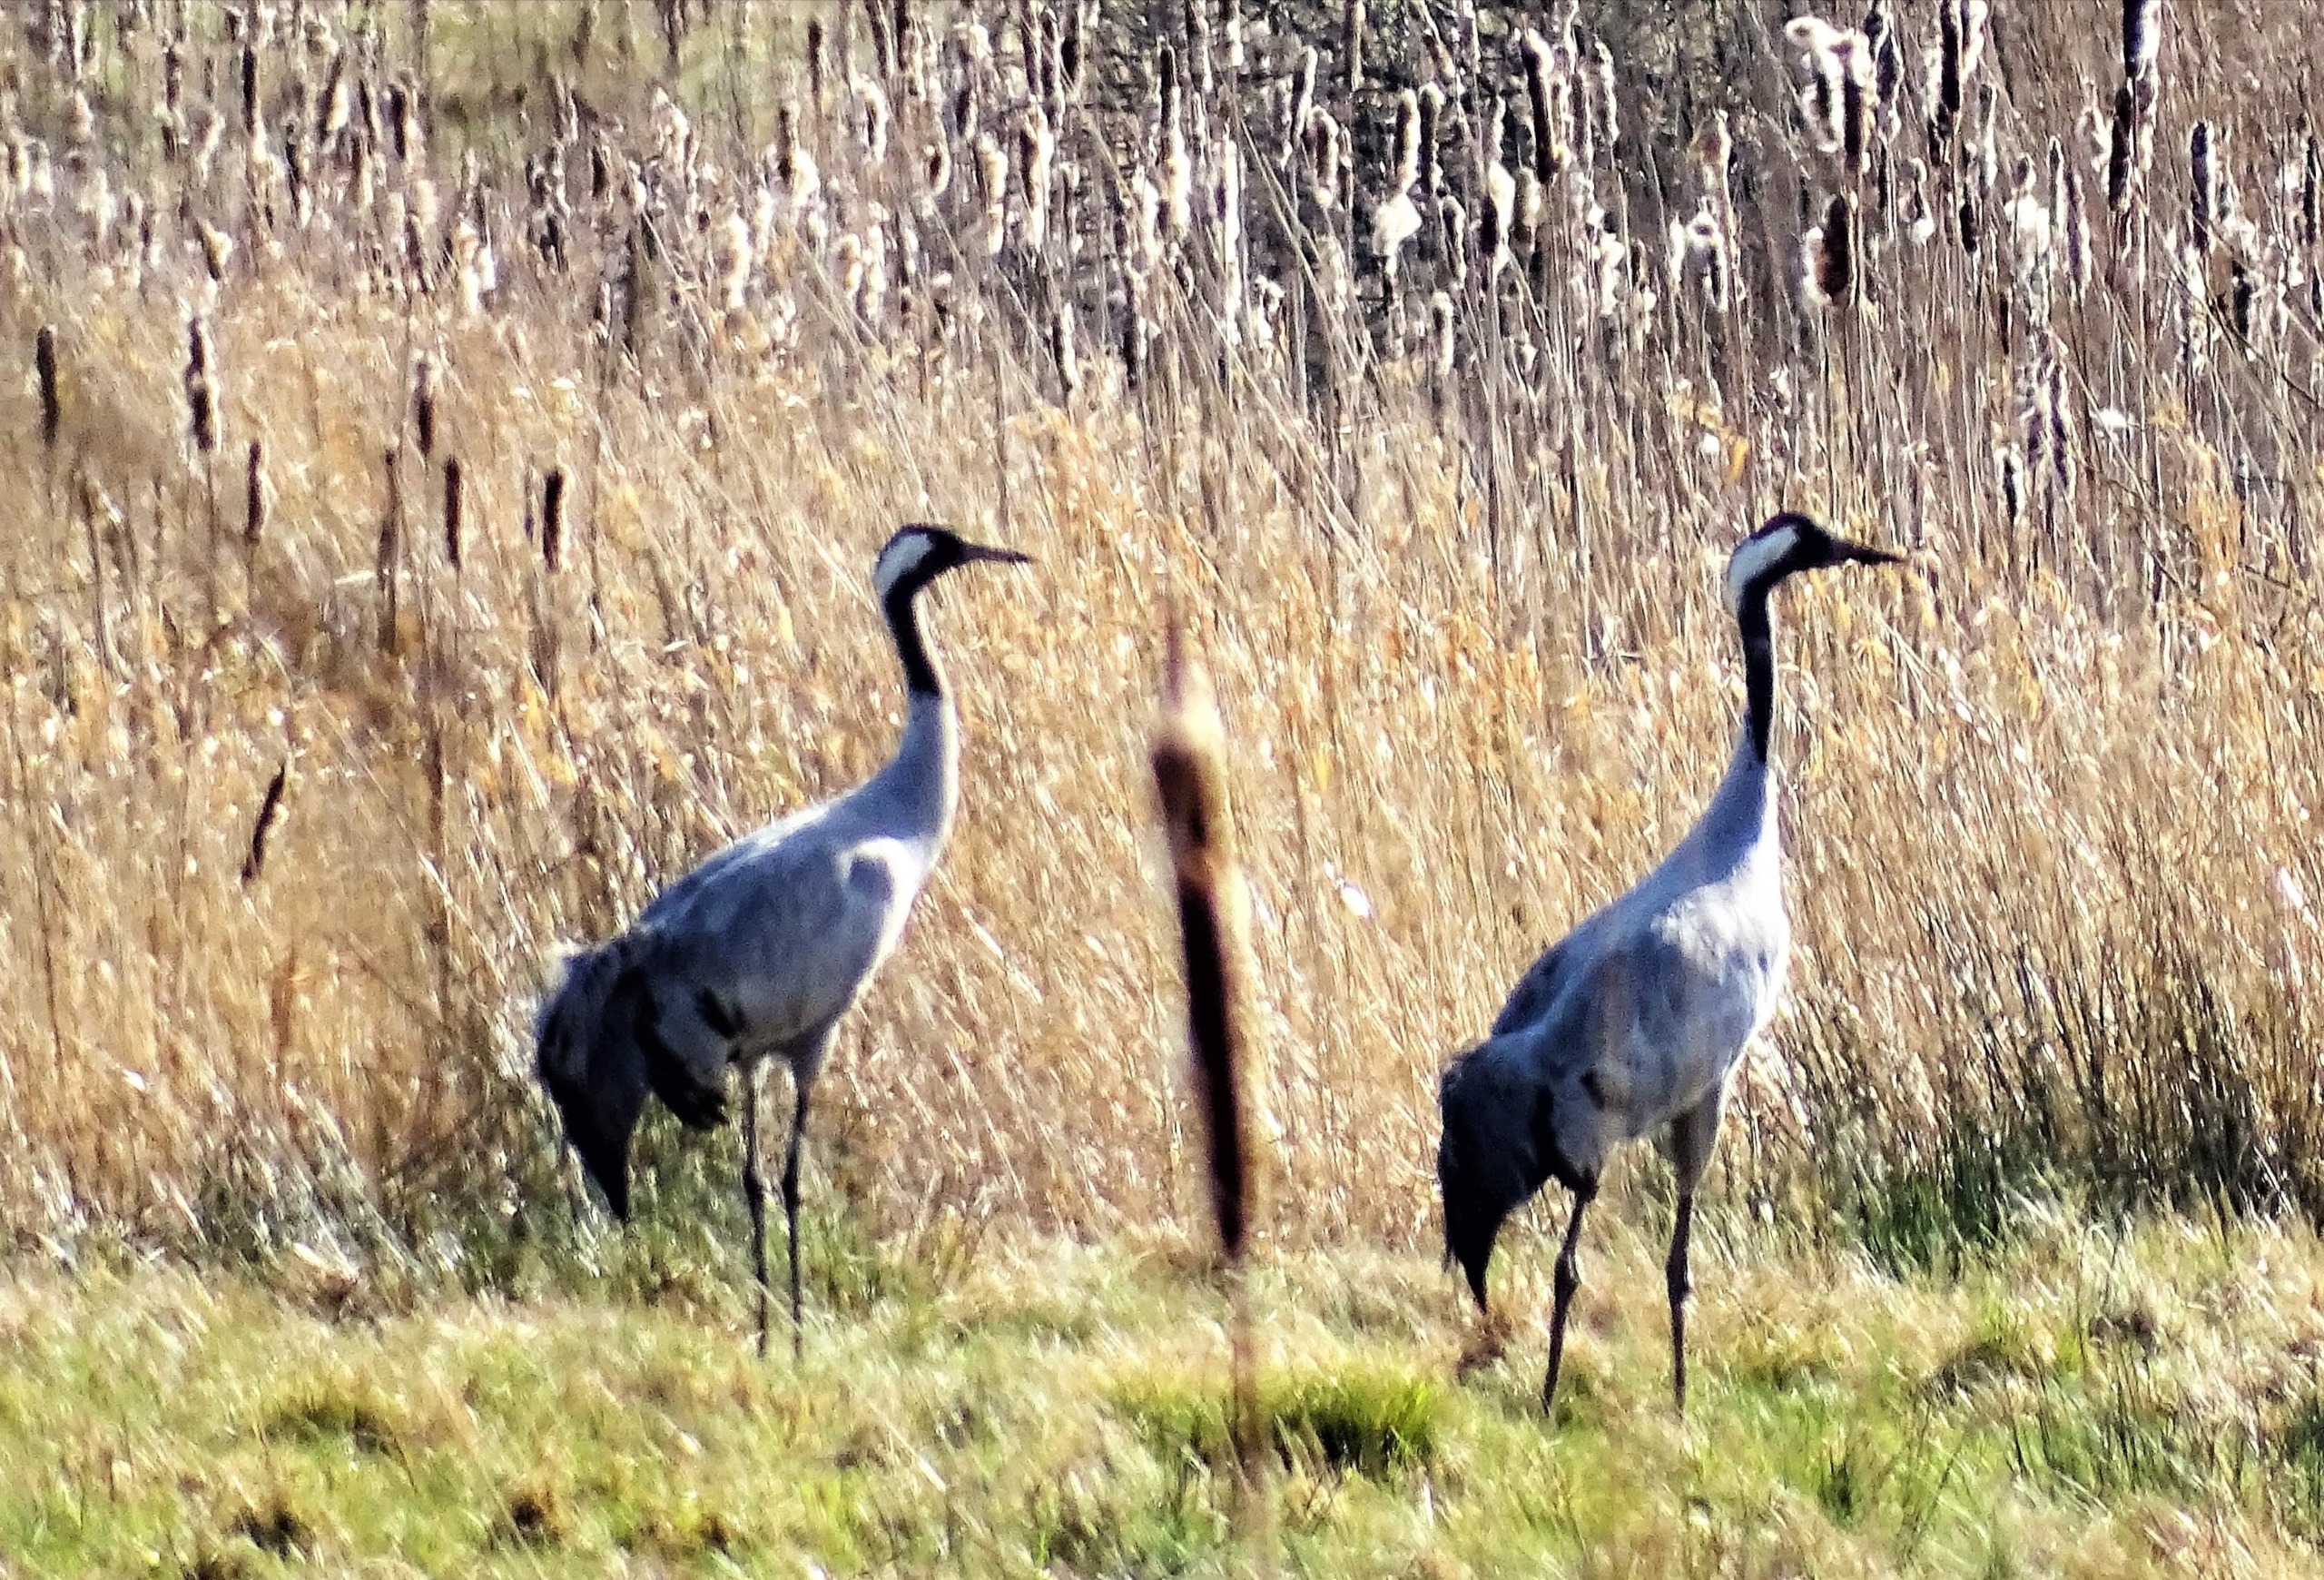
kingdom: Animalia
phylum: Chordata
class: Aves
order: Gruiformes
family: Gruidae
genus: Grus
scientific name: Grus grus
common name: Trane
